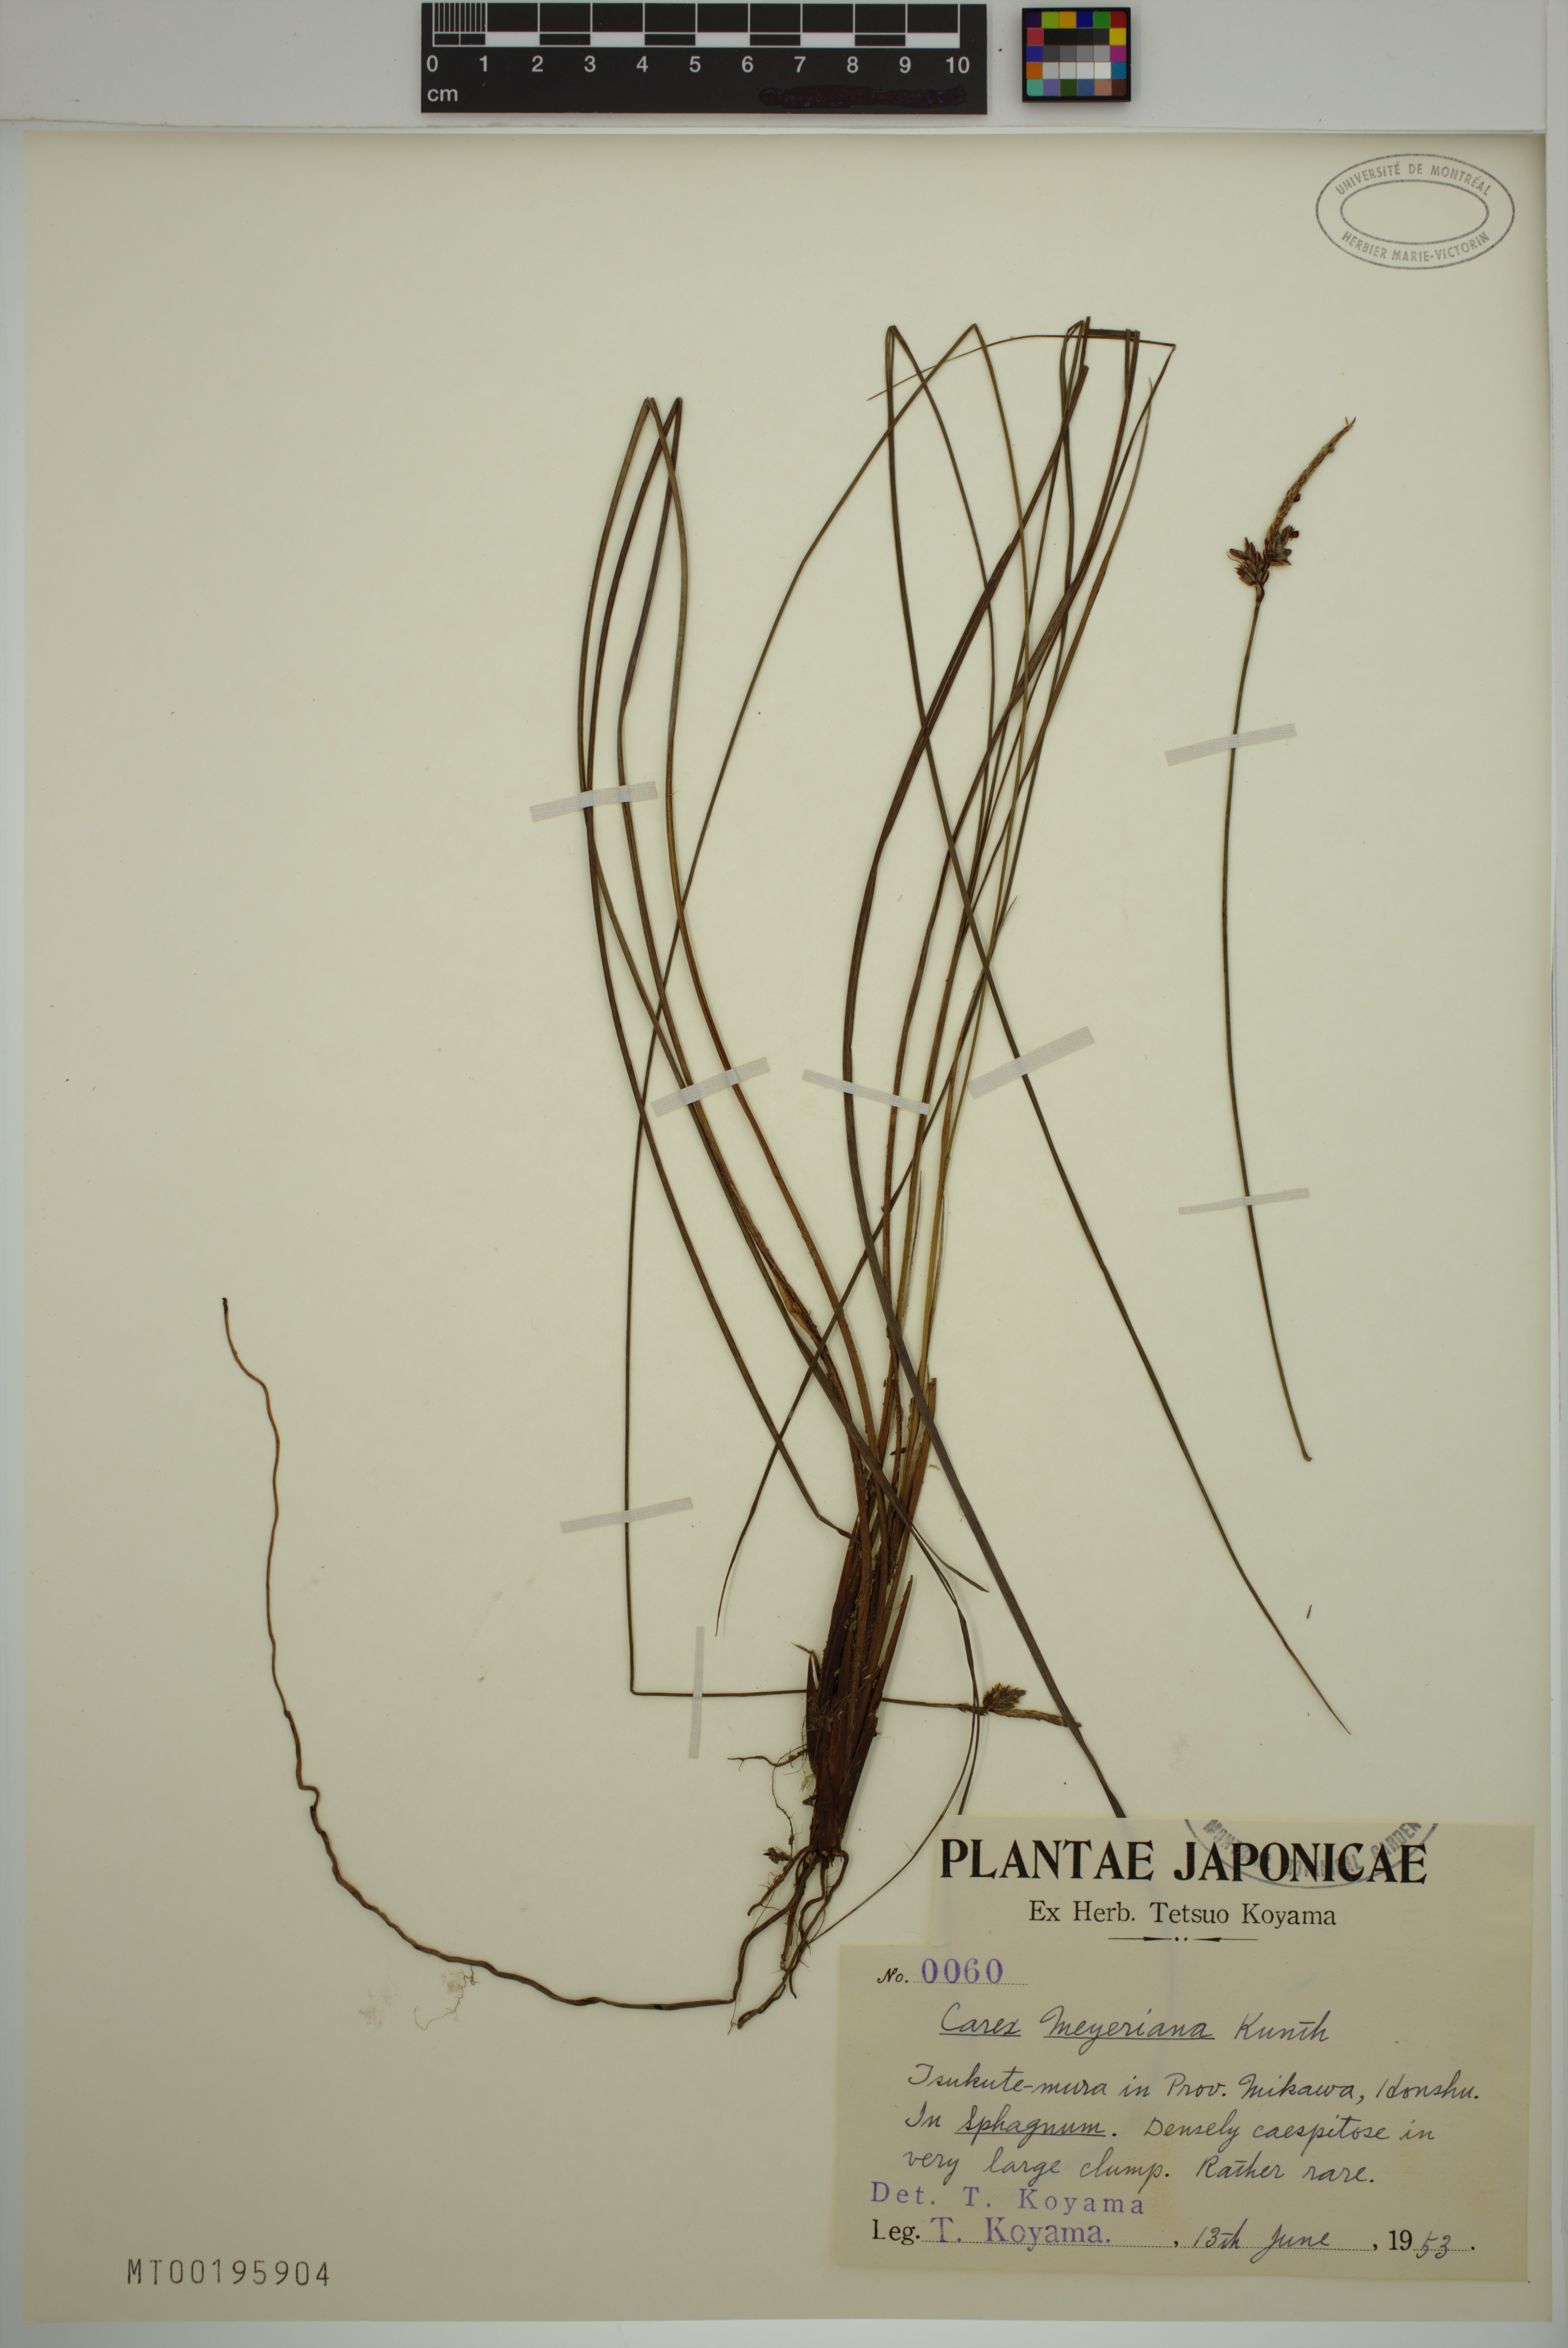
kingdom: Plantae
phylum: Tracheophyta
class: Liliopsida
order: Poales
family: Cyperaceae
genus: Carex
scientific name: Carex meyeriana
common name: Wula sedge
